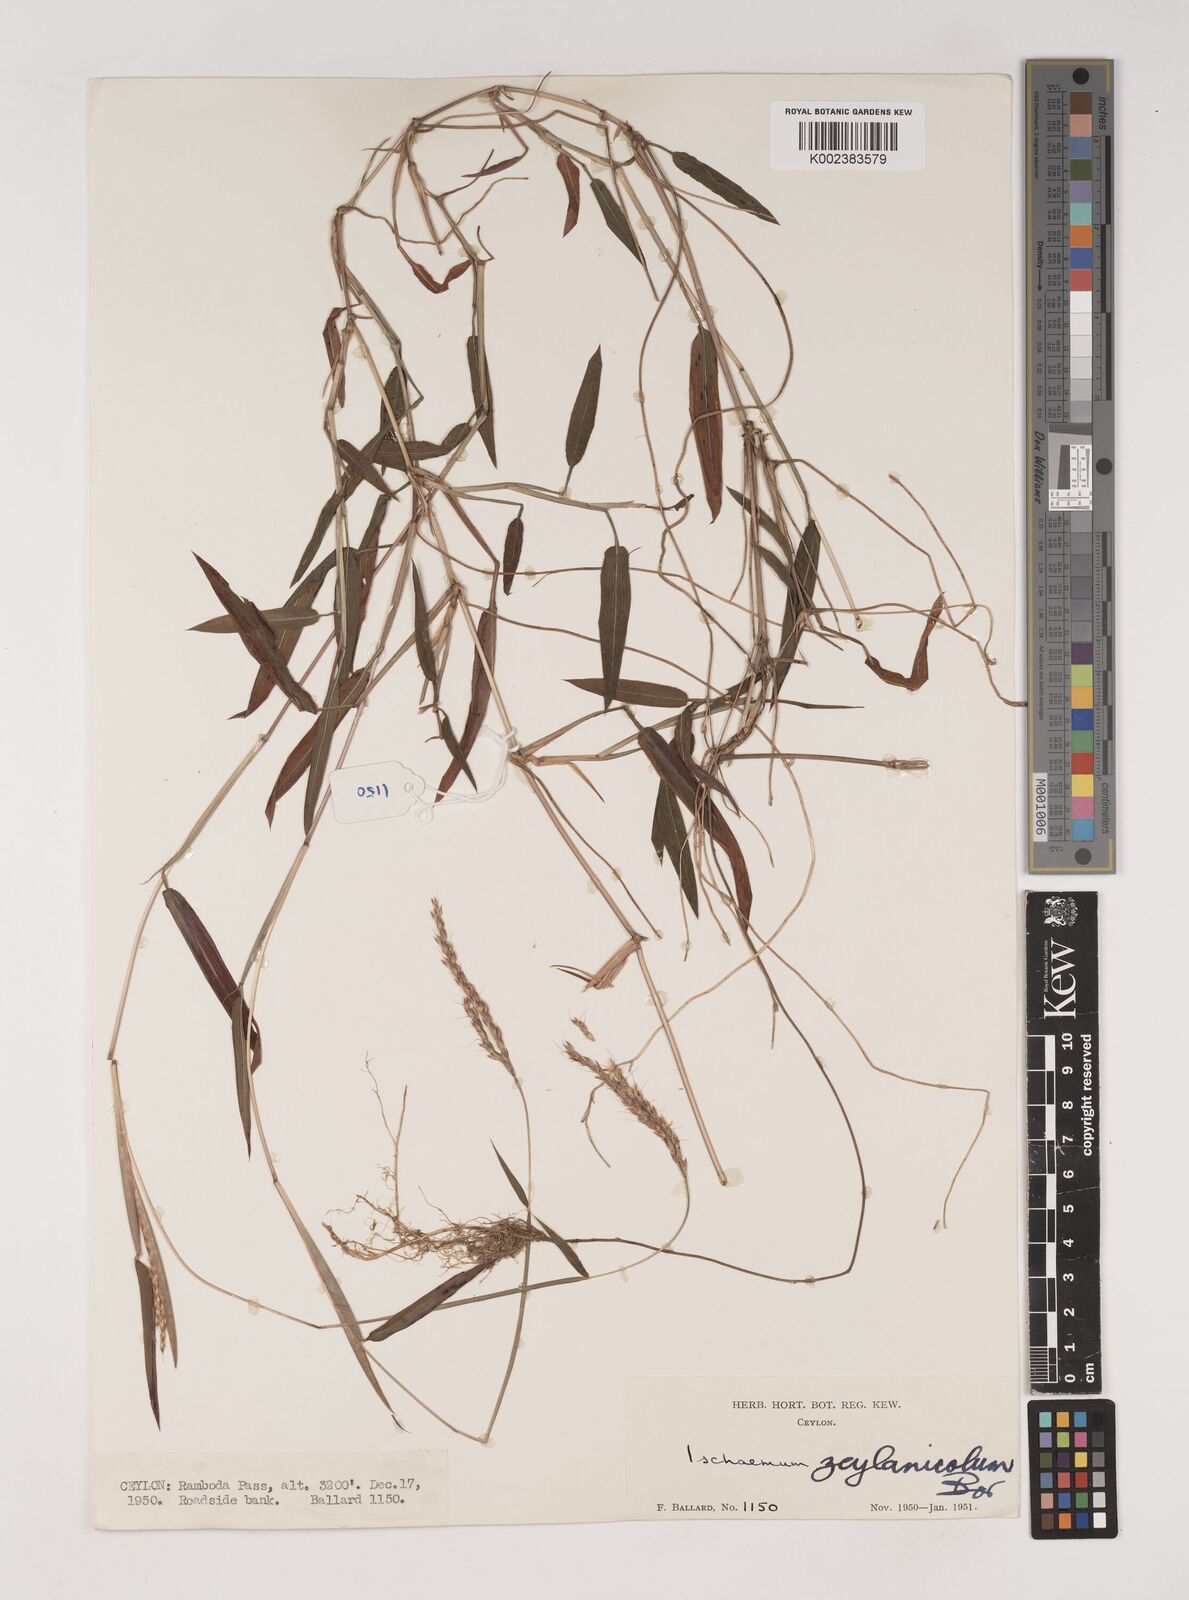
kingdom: Plantae
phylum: Tracheophyta
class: Liliopsida
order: Poales
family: Poaceae
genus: Ischaemum
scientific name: Ischaemum zeylanicola
